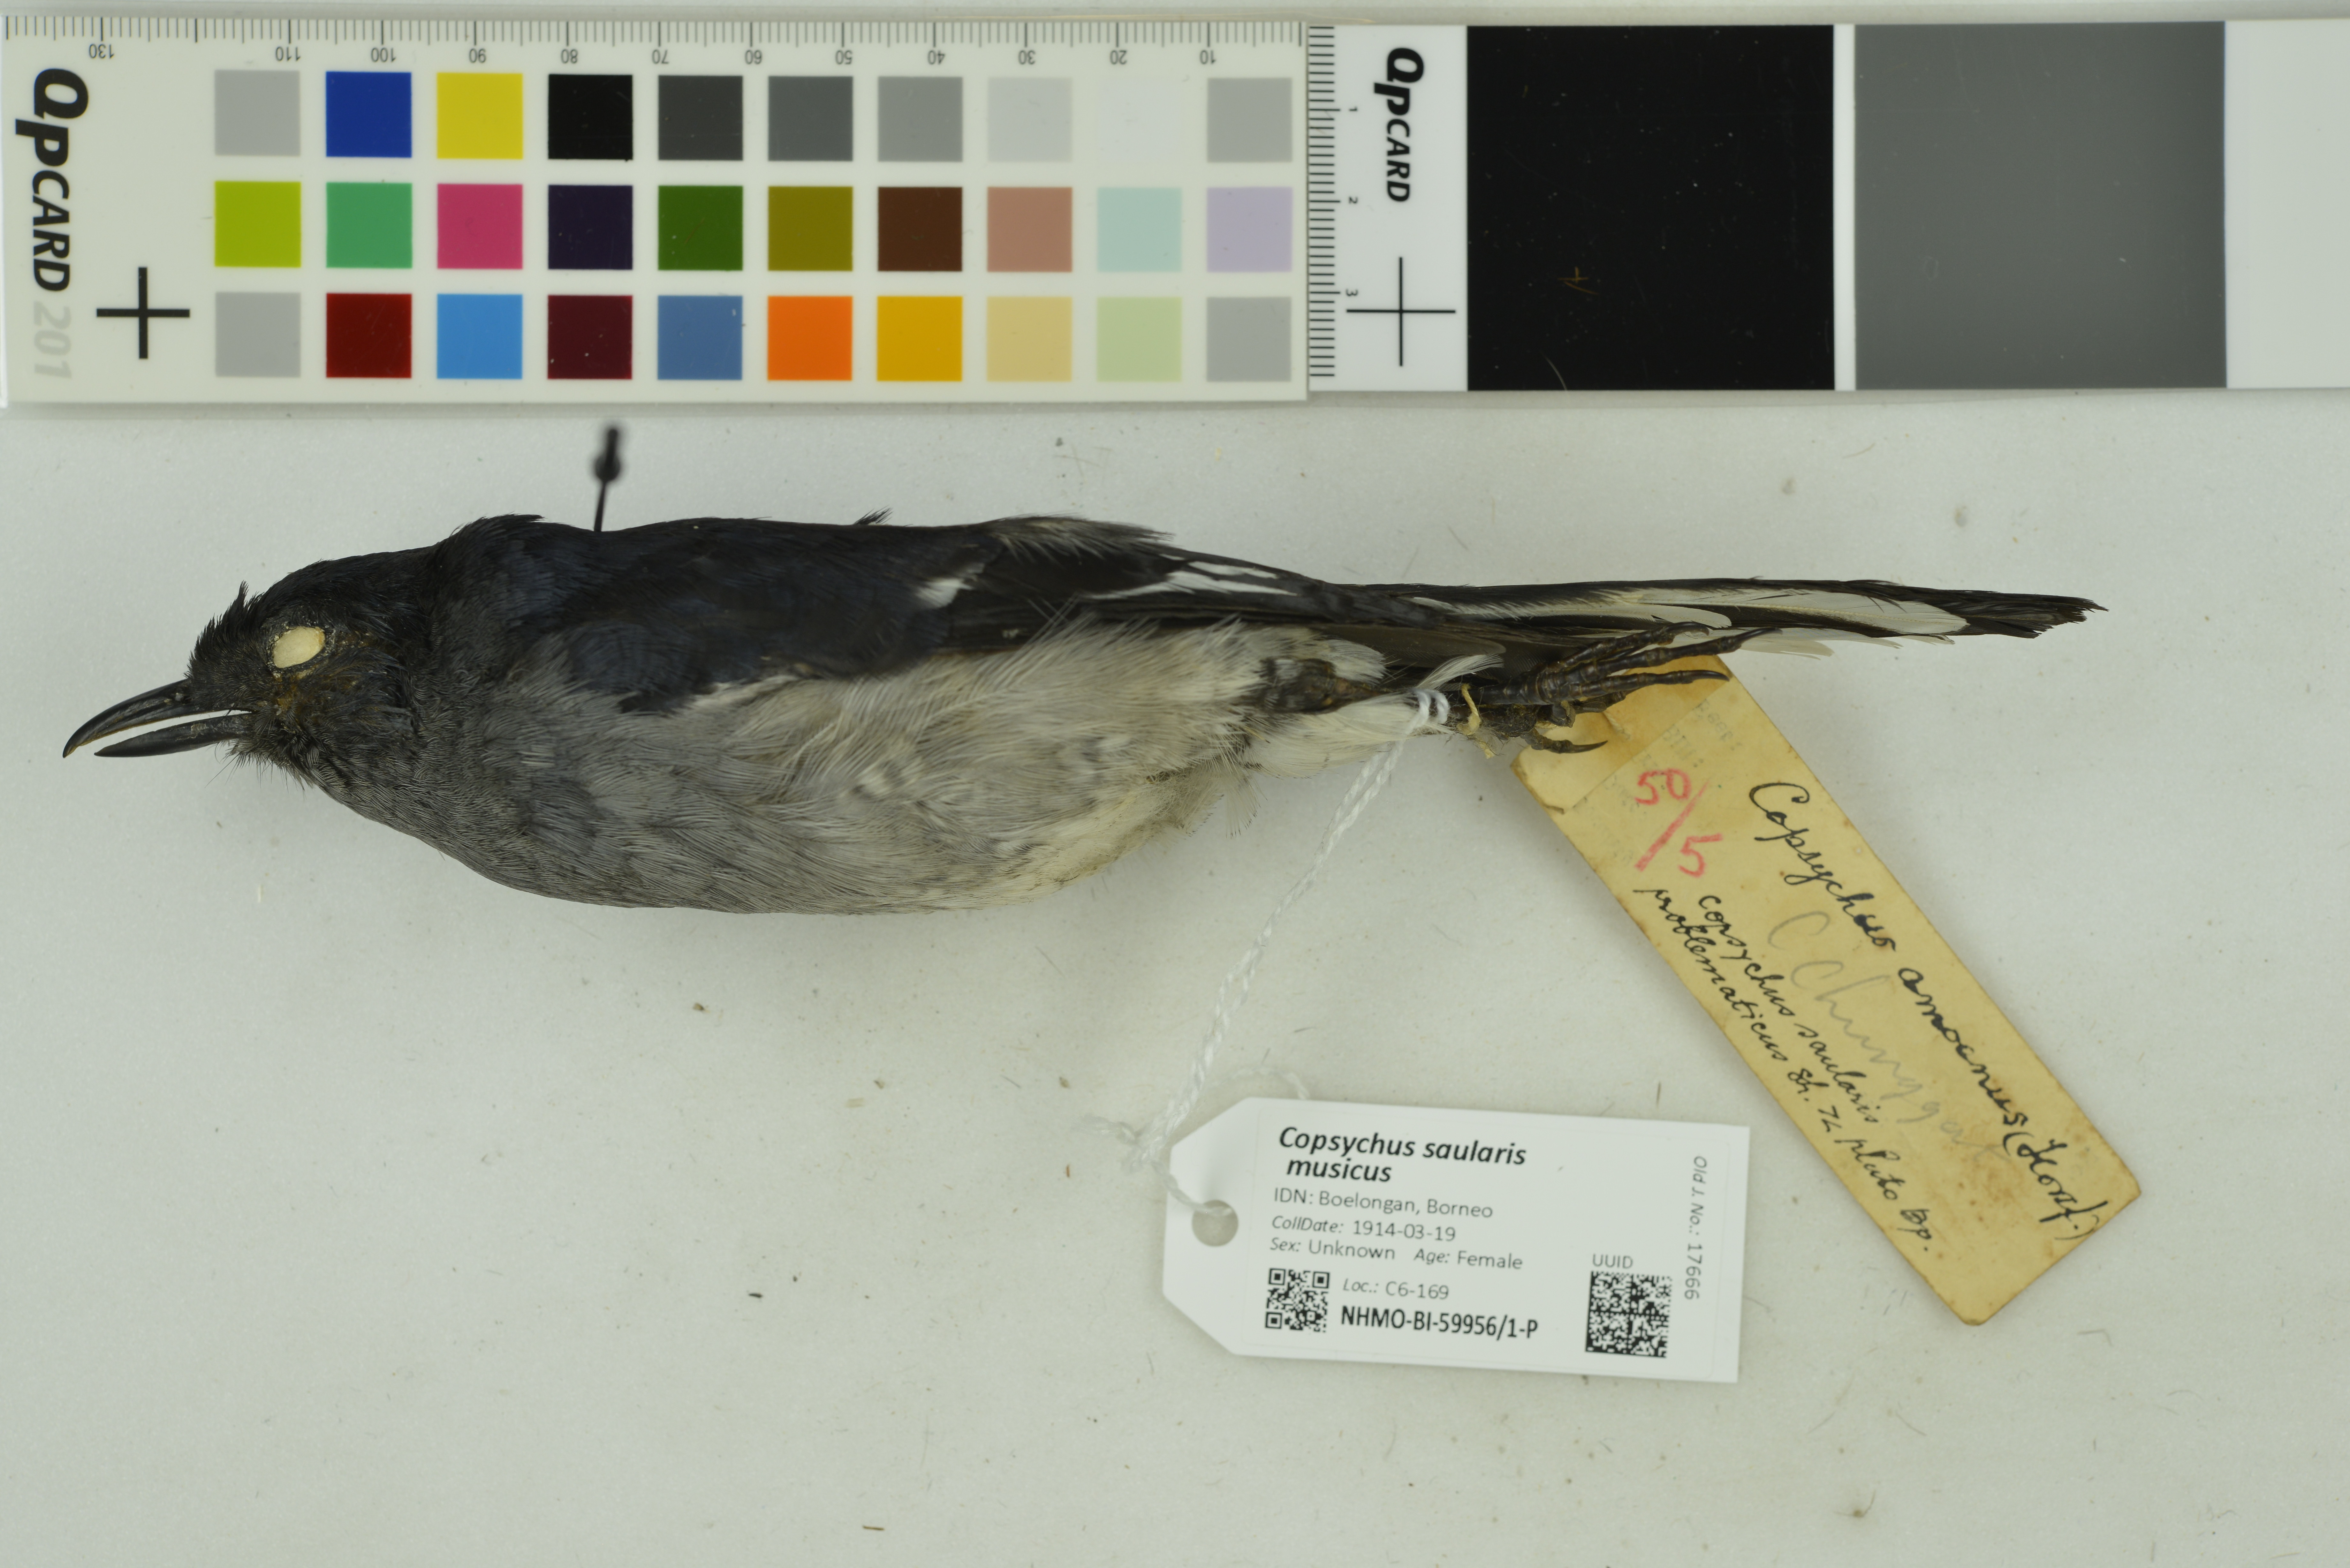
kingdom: Animalia
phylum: Chordata
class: Aves
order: Passeriformes
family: Muscicapidae
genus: Copsychus
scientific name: Copsychus saularis
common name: Oriental magpie-robin
